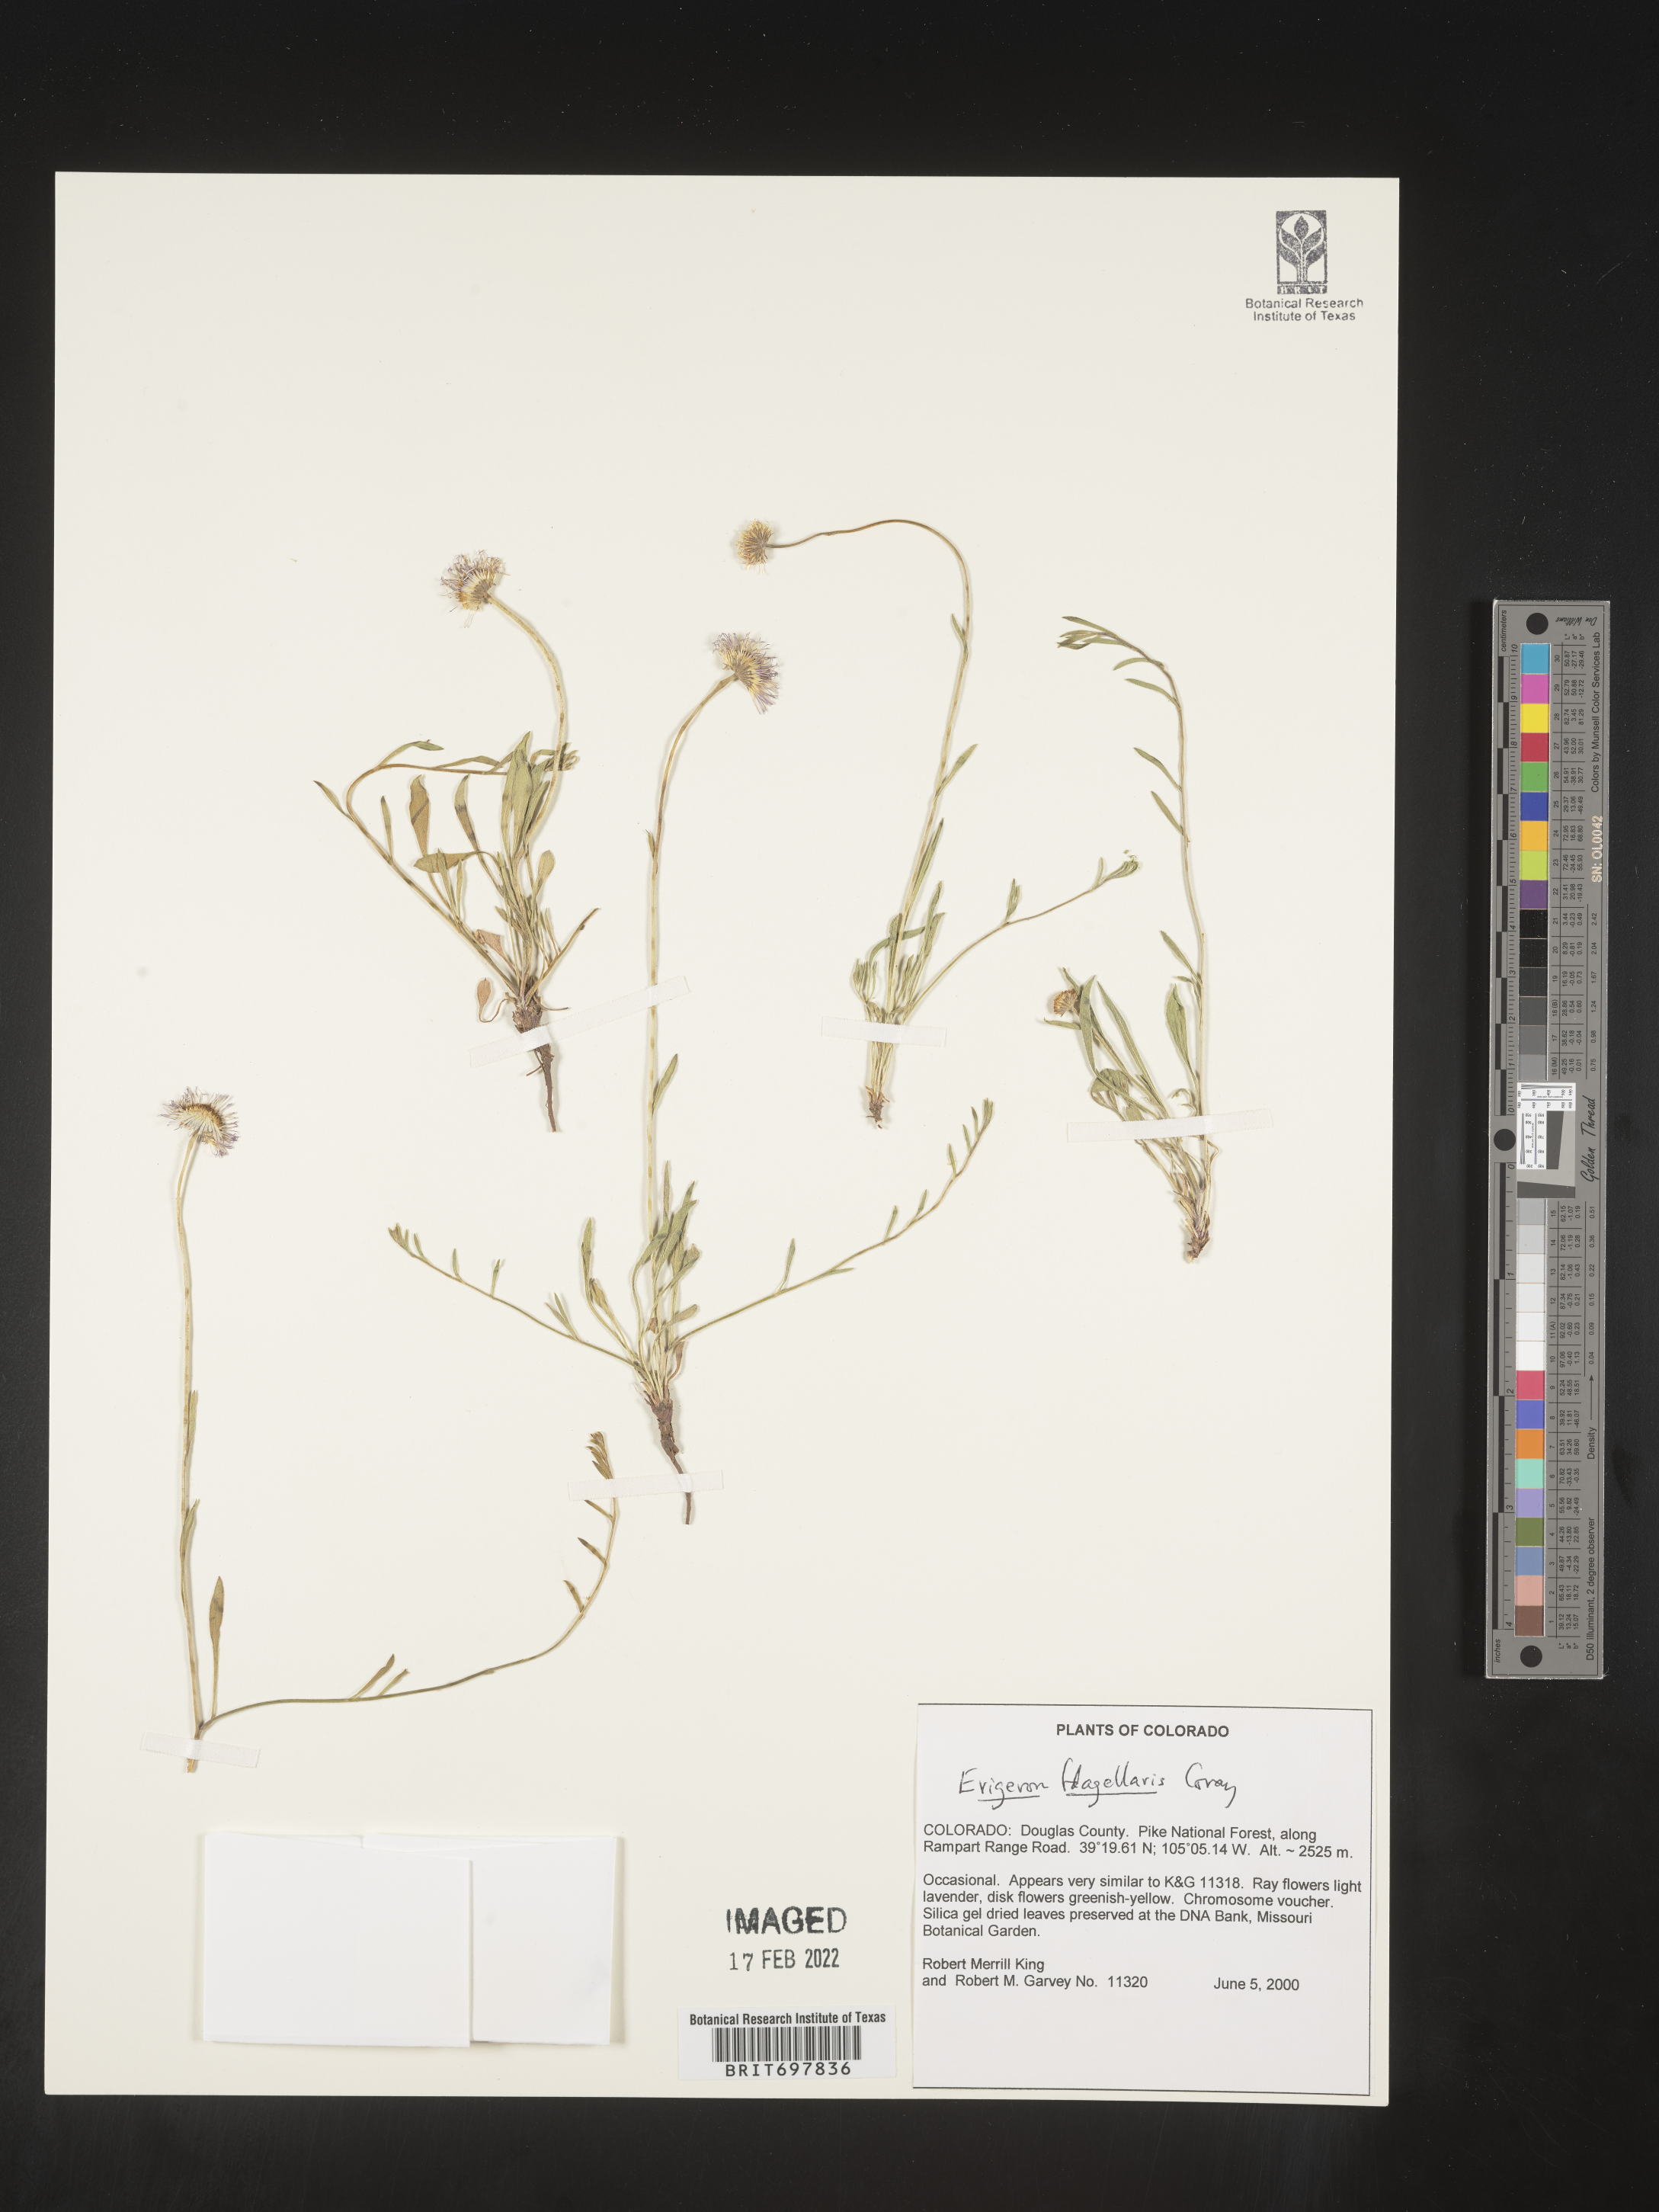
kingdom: Plantae
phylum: Tracheophyta
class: Magnoliopsida
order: Asterales
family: Asteraceae
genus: Erigeron
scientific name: Erigeron flagellaris
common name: Running fleabane
